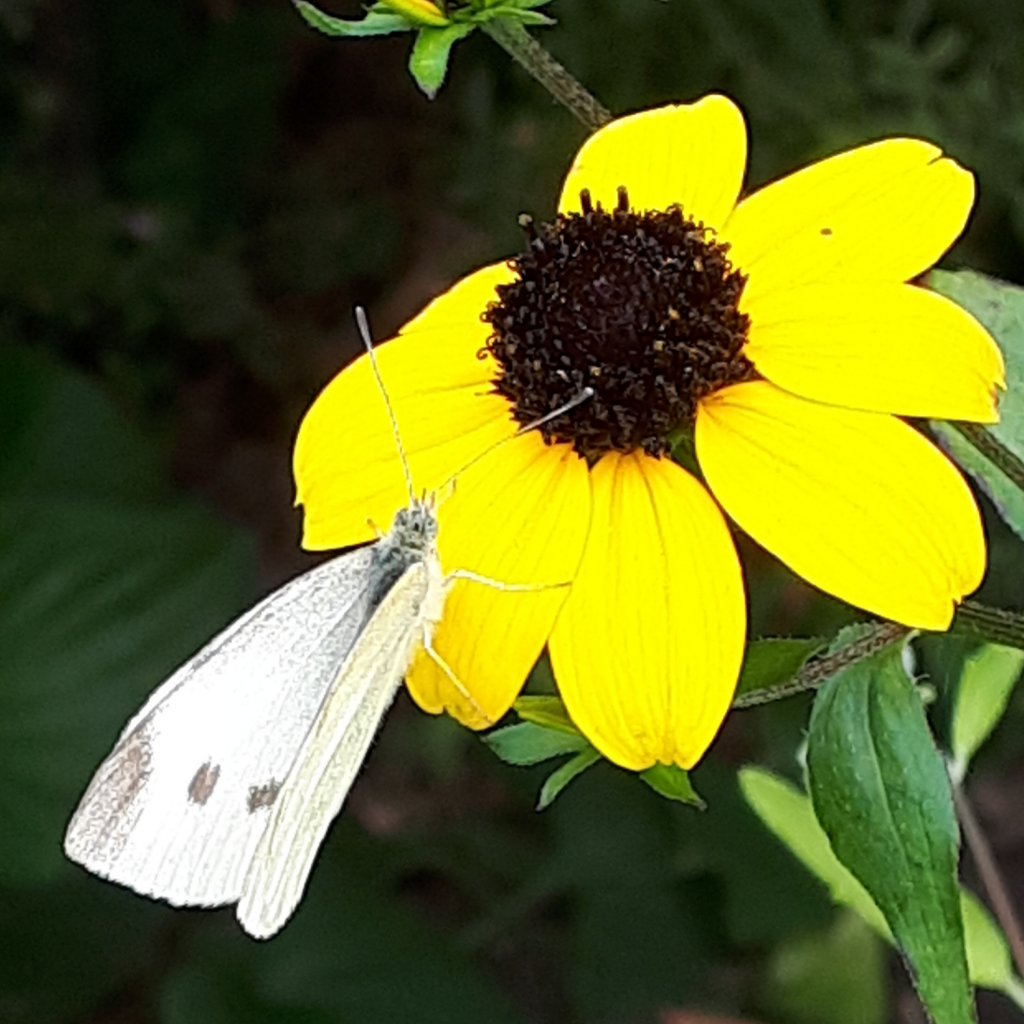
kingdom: Animalia
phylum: Arthropoda
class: Insecta
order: Lepidoptera
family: Pieridae
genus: Pieris
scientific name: Pieris rapae
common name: Cabbage White
